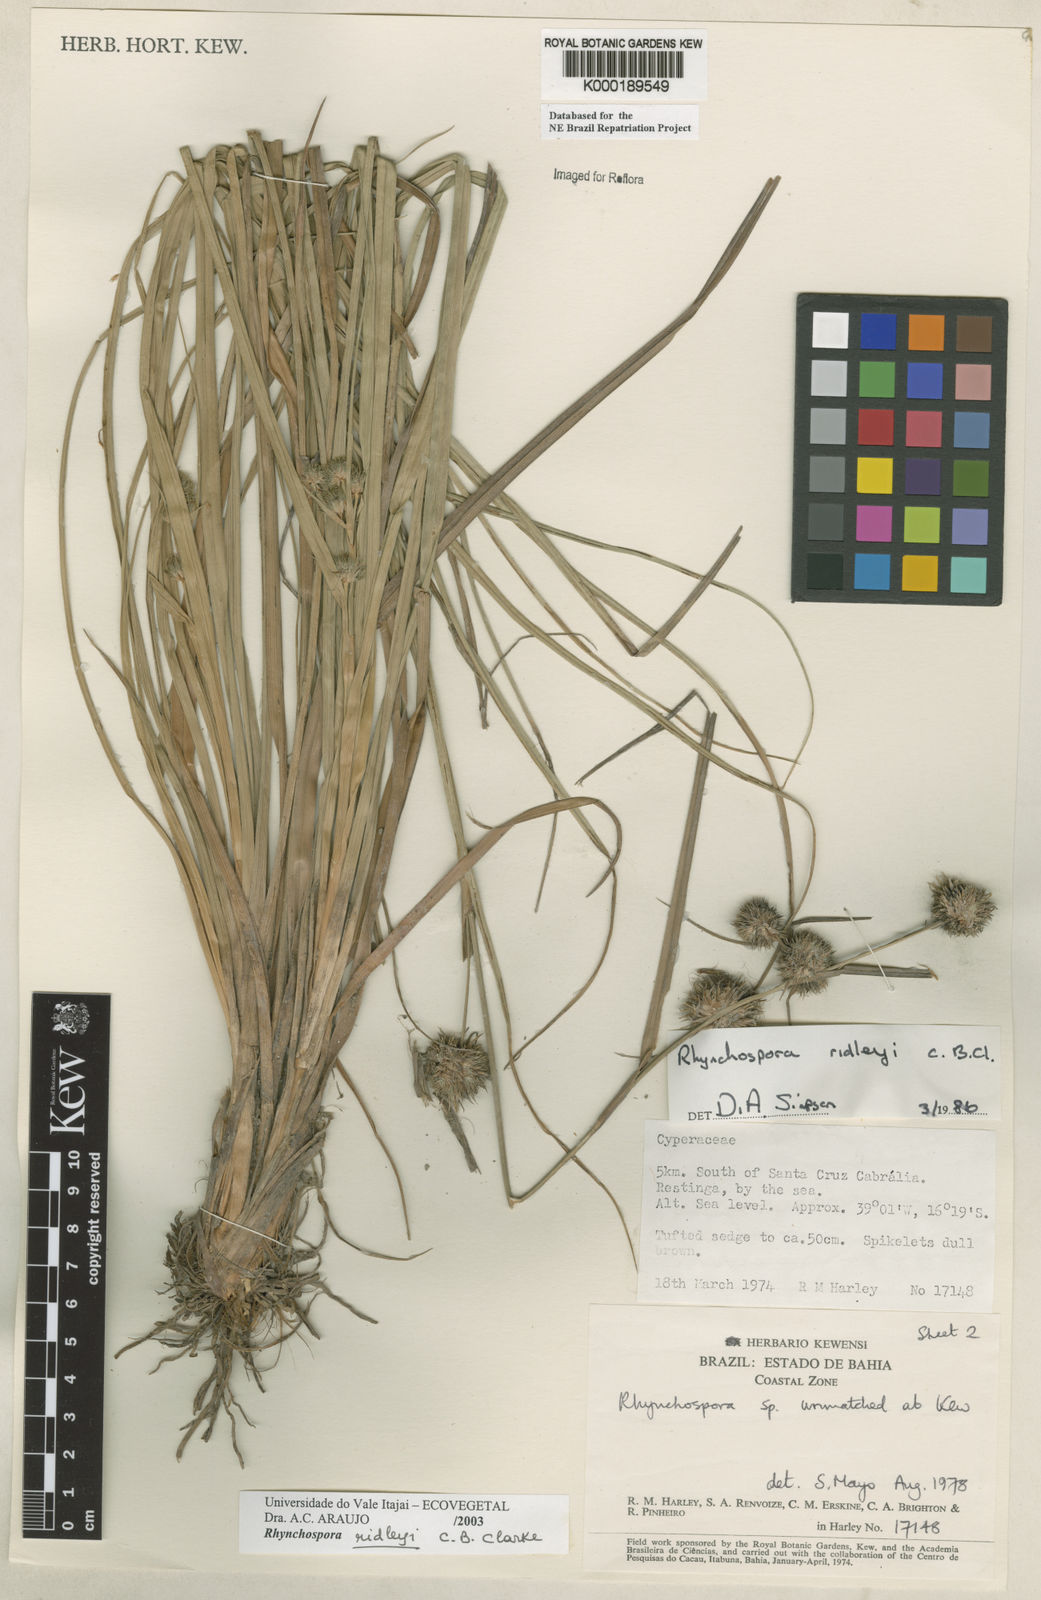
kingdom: Plantae
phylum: Tracheophyta
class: Liliopsida
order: Poales
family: Cyperaceae
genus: Rhynchospora
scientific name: Rhynchospora ridleyi
